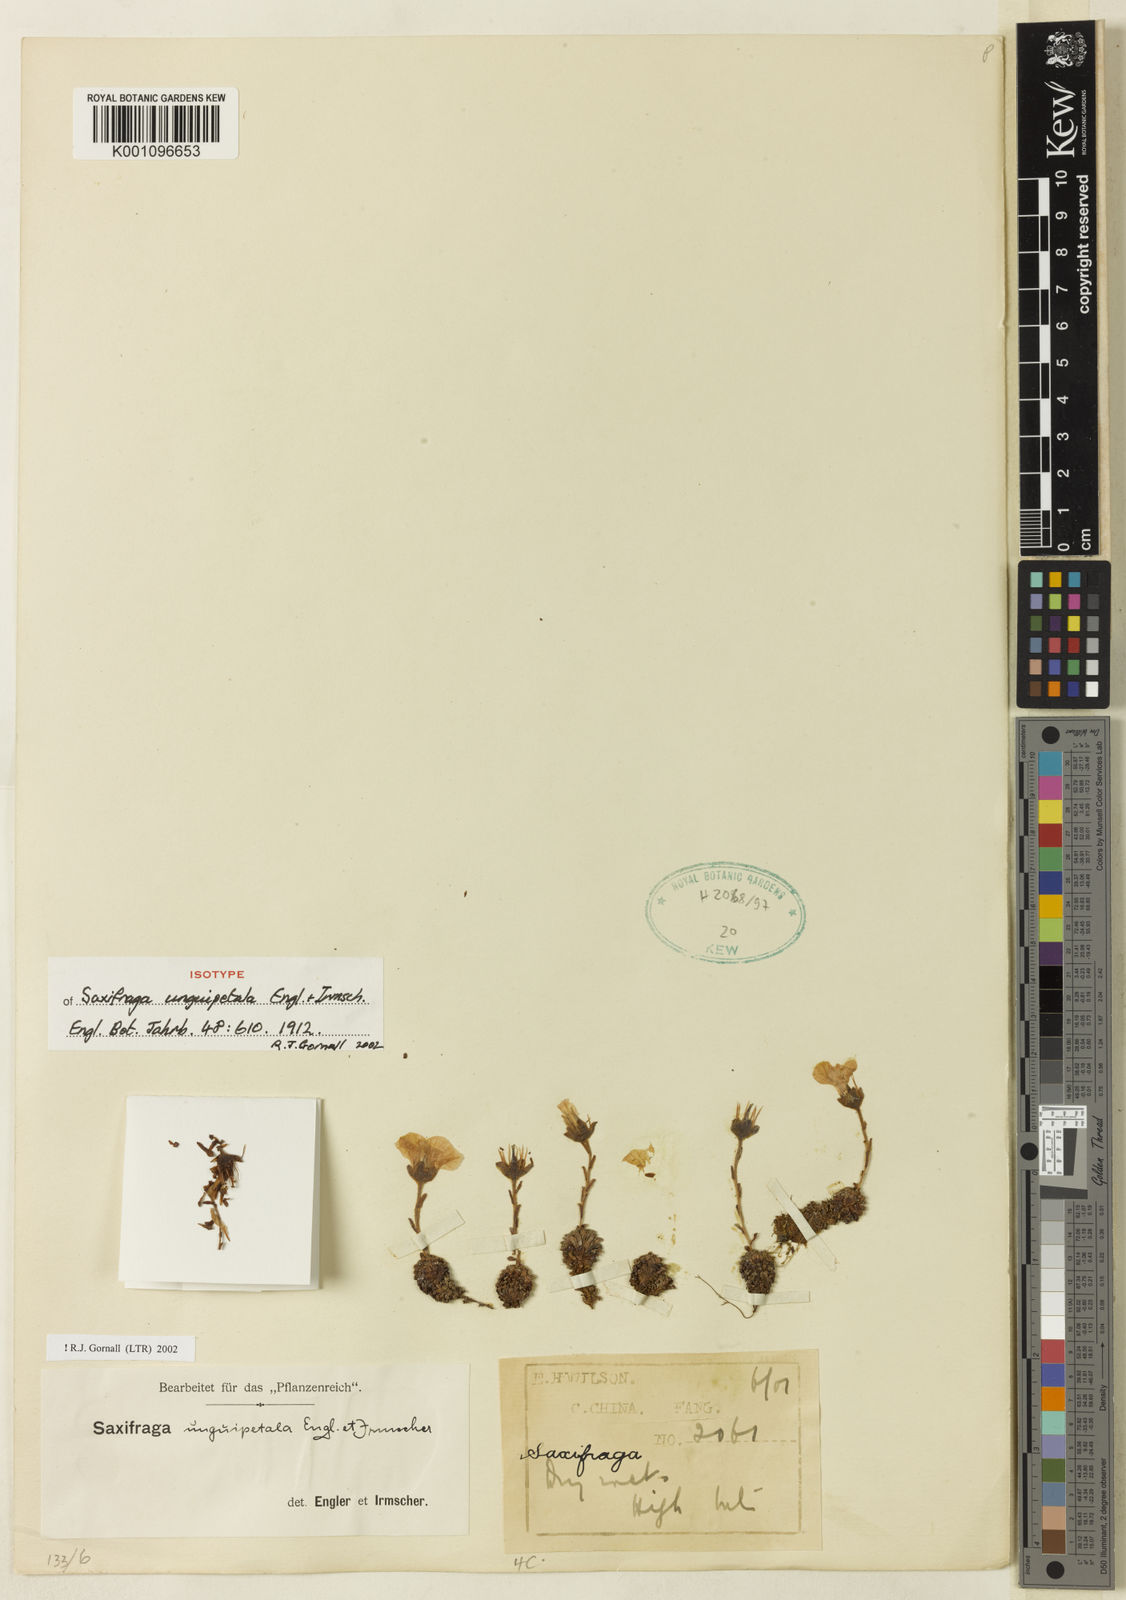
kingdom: Plantae
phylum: Tracheophyta
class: Magnoliopsida
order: Saxifragales
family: Saxifragaceae
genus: Saxifraga
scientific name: Saxifraga unguipetala
